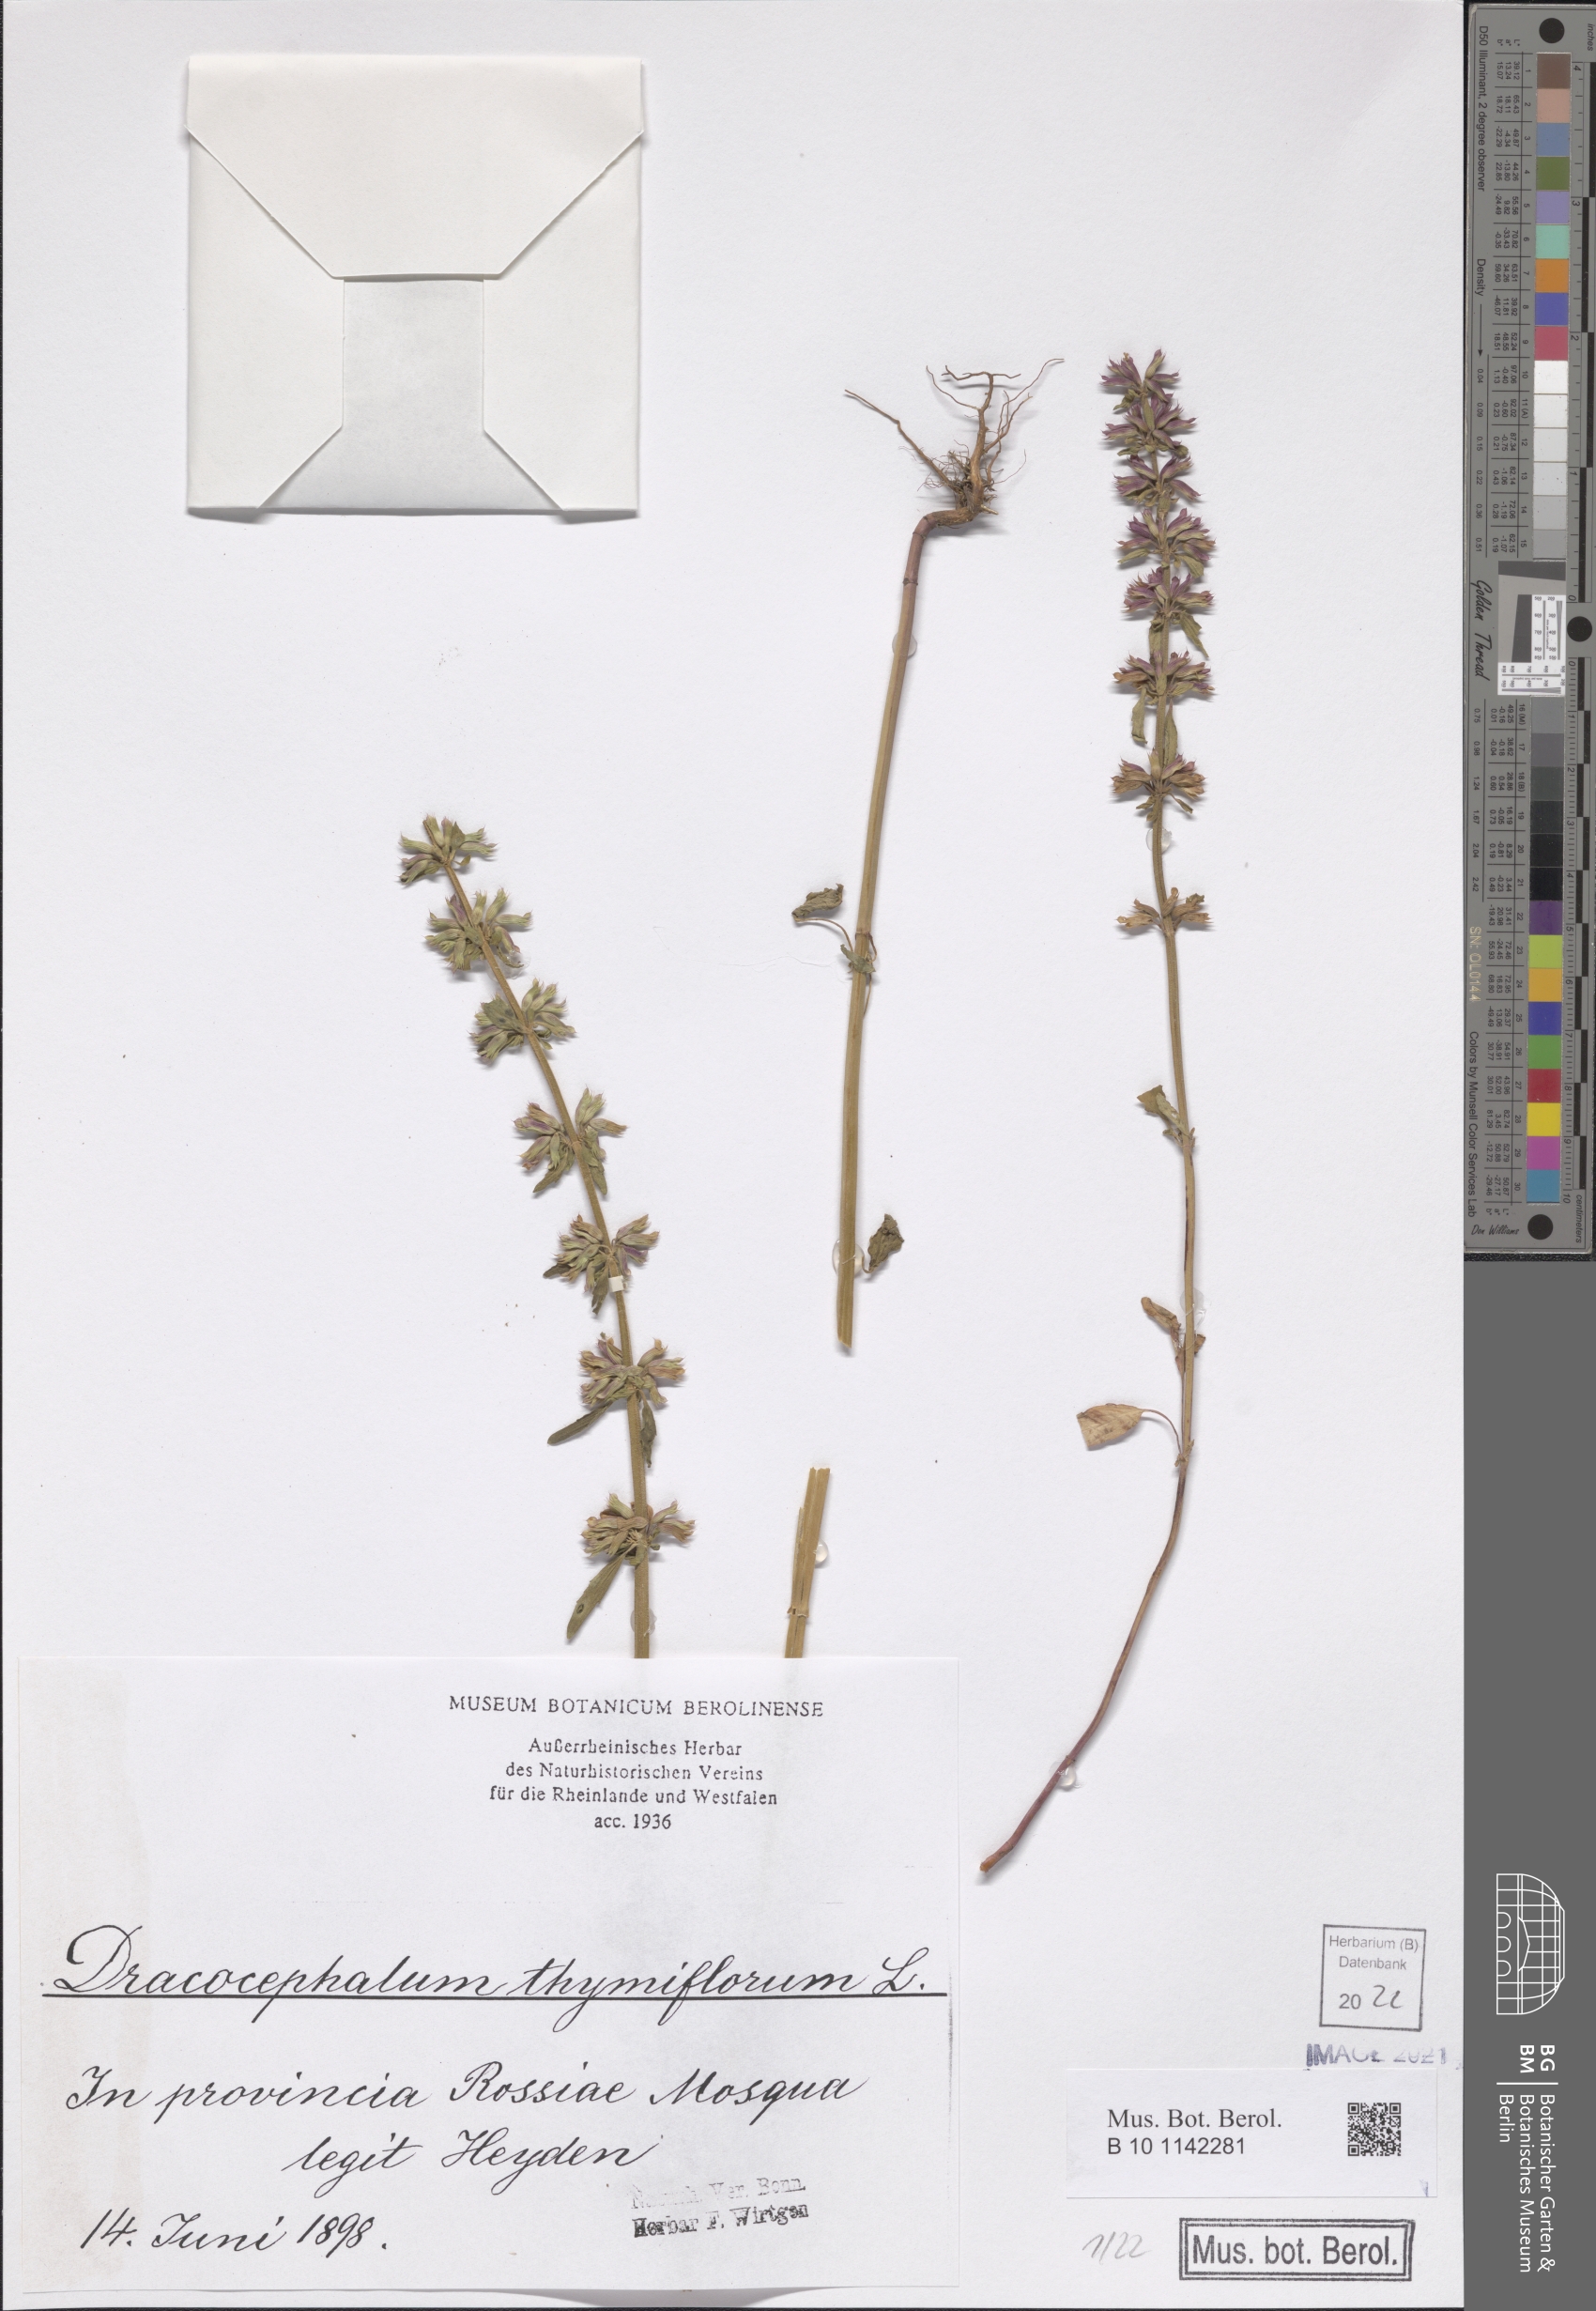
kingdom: Plantae
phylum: Tracheophyta
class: Magnoliopsida
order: Lamiales
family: Lamiaceae
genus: Dracocephalum
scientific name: Dracocephalum thymiflorum
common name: Thymeleaf dragonhead
